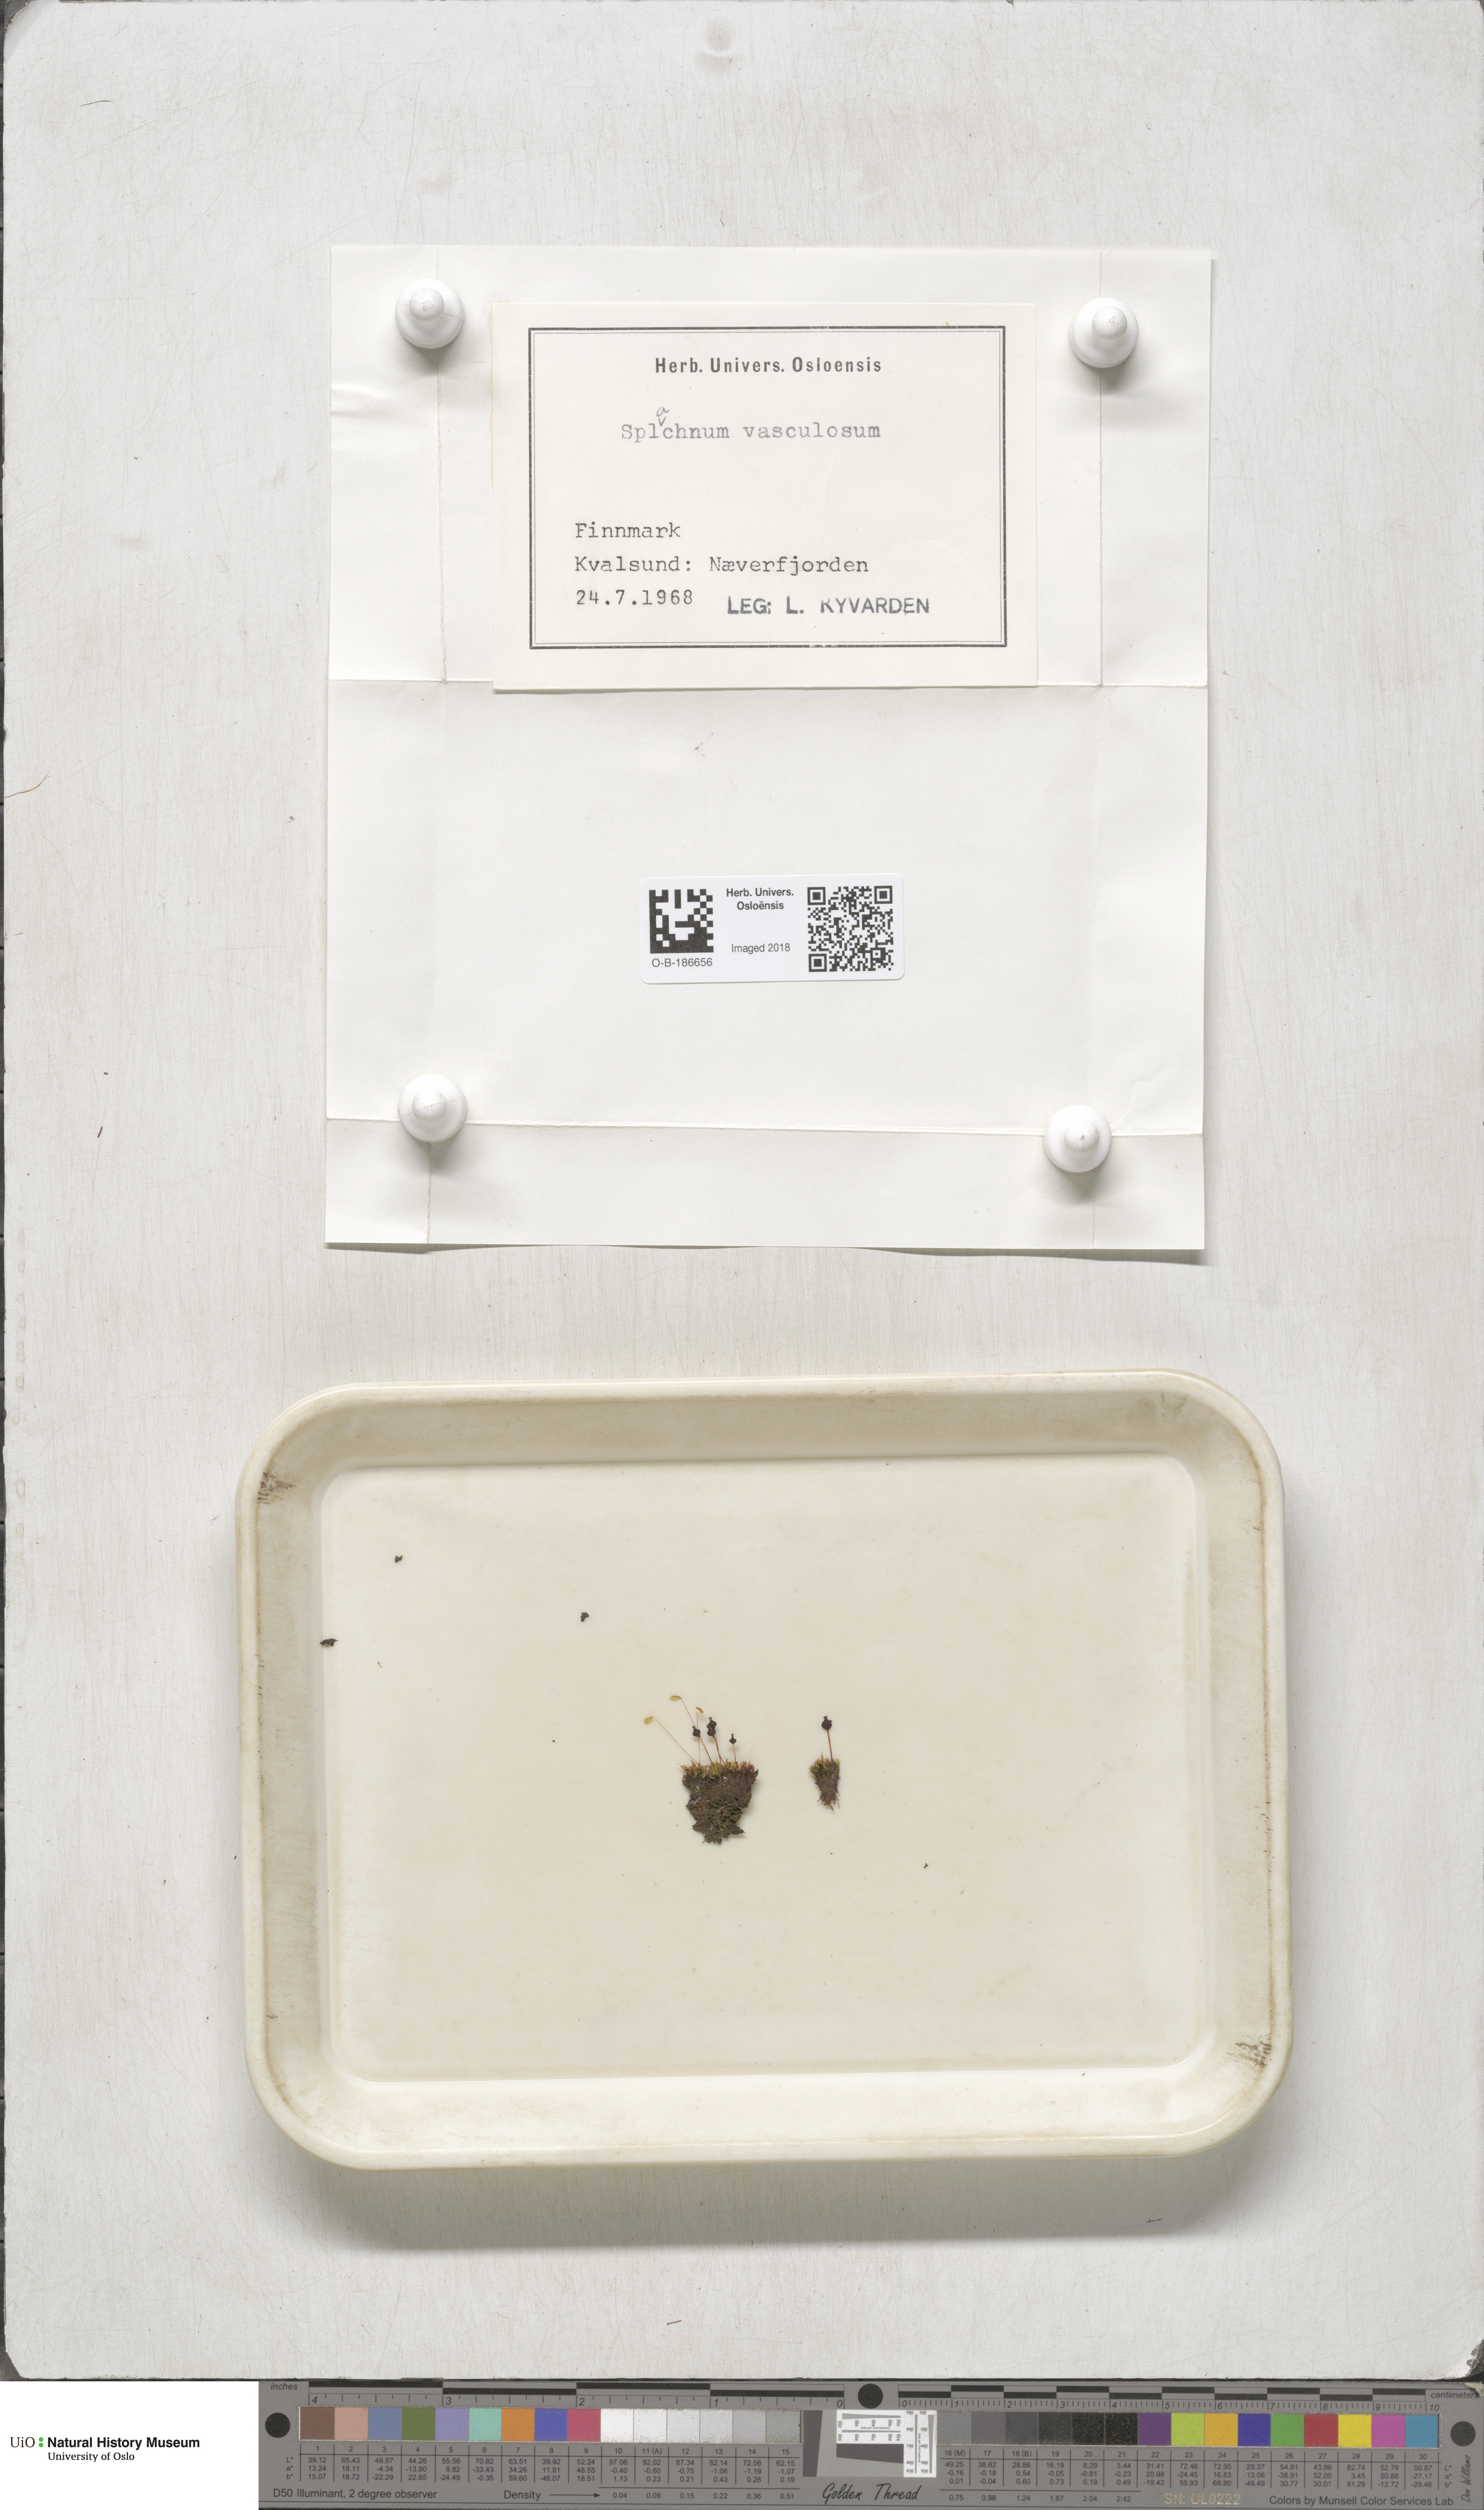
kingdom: Plantae
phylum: Bryophyta
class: Bryopsida
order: Splachnales
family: Splachnaceae
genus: Splachnum
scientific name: Splachnum vasculosum
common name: Rugged dung moss
